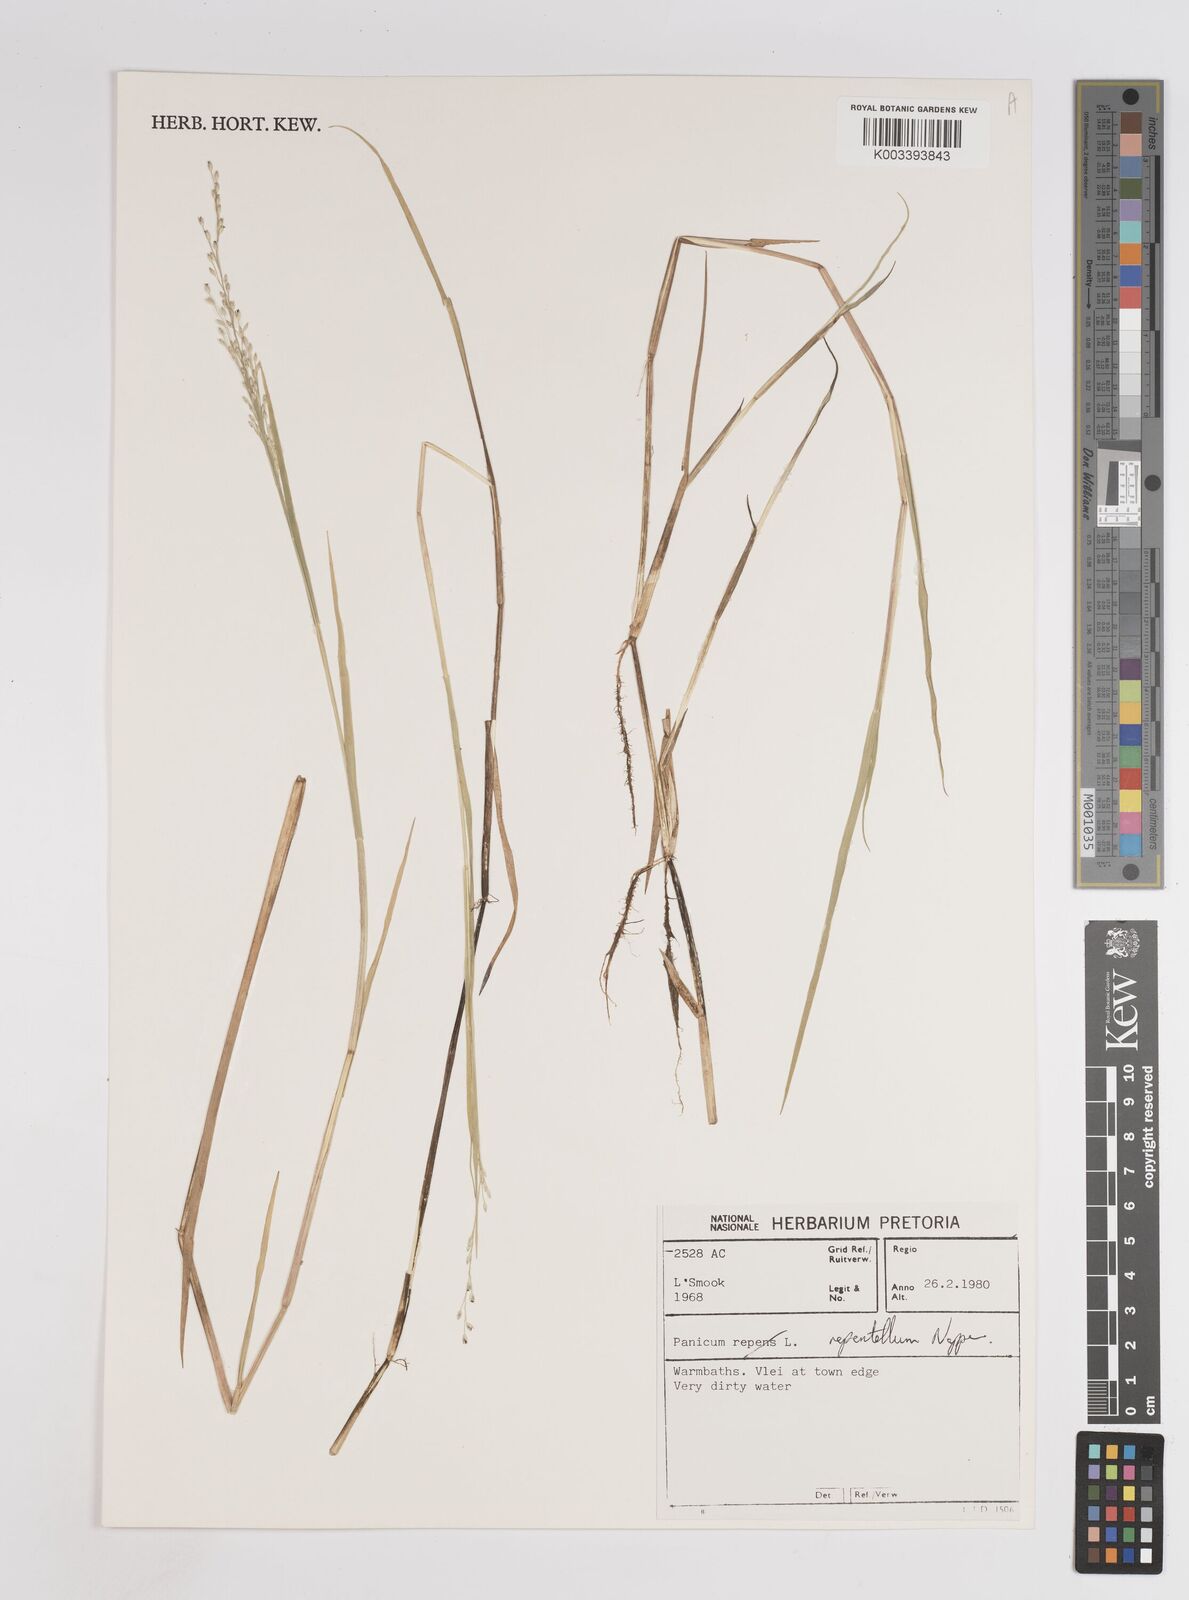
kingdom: Plantae
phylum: Tracheophyta
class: Liliopsida
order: Poales
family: Poaceae
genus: Panicum
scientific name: Panicum hygrocharis
